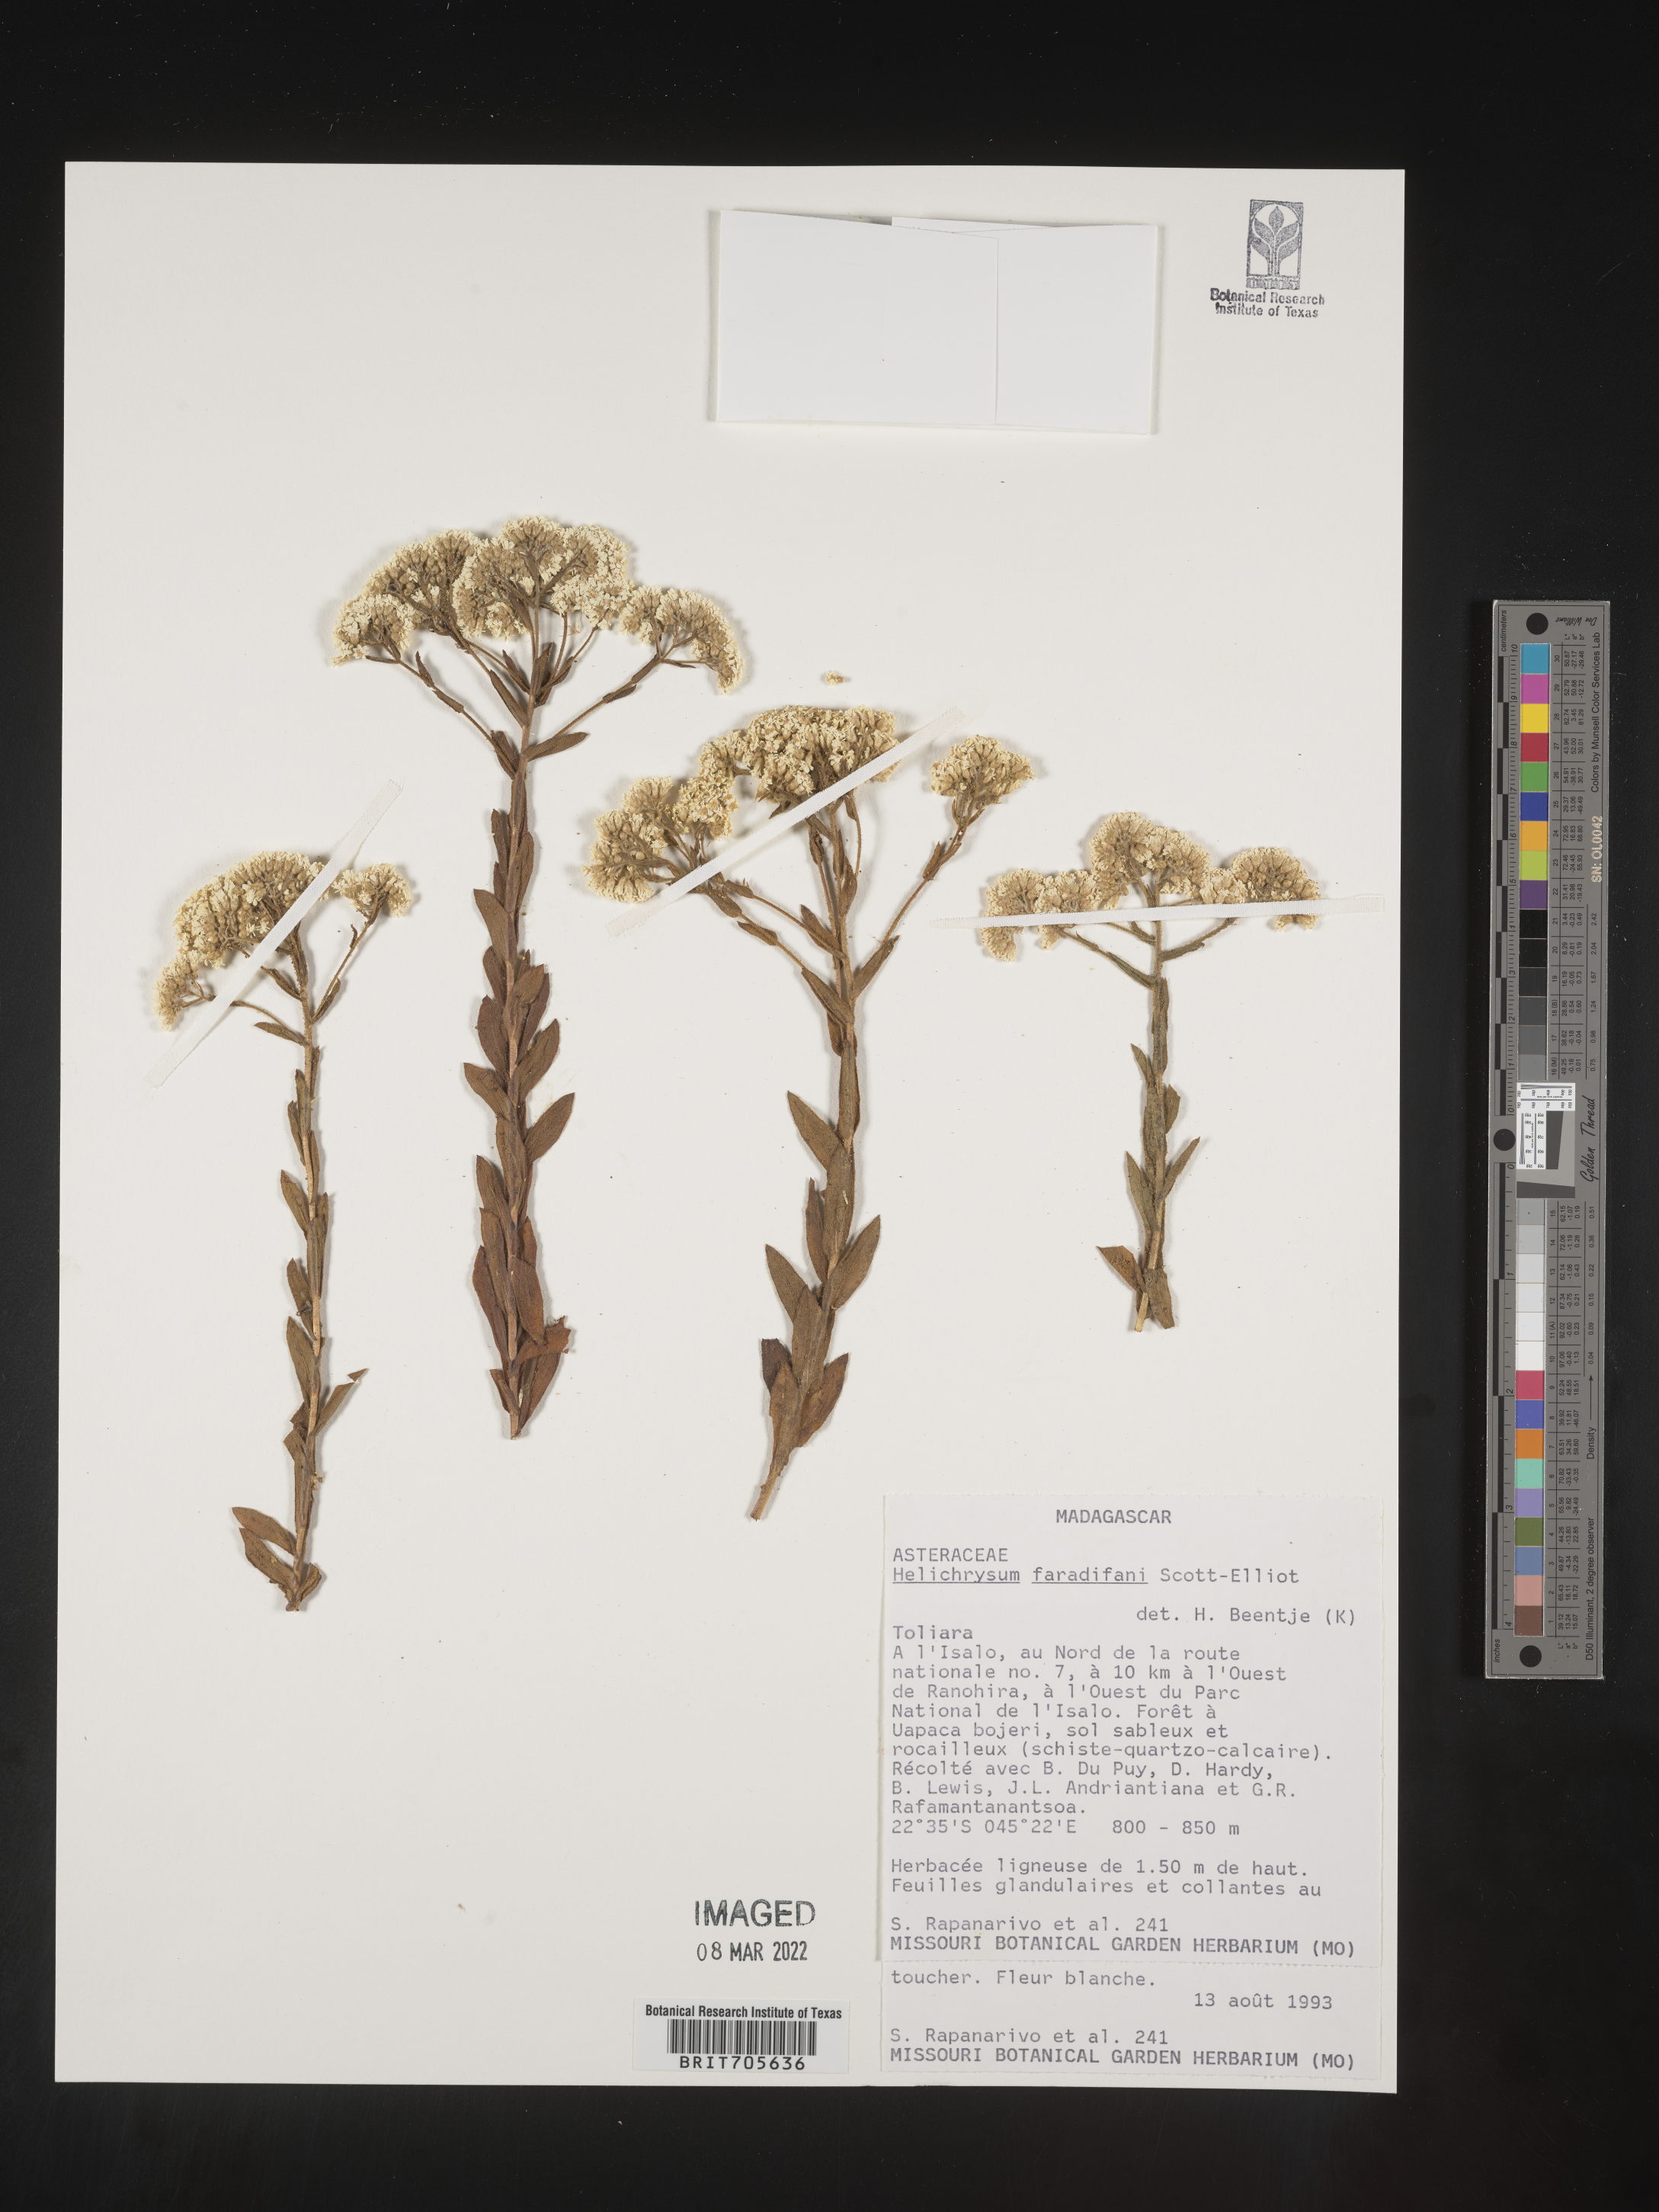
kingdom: Plantae
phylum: Tracheophyta
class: Magnoliopsida
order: Asterales
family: Asteraceae
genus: Helichrysum
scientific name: Helichrysum
